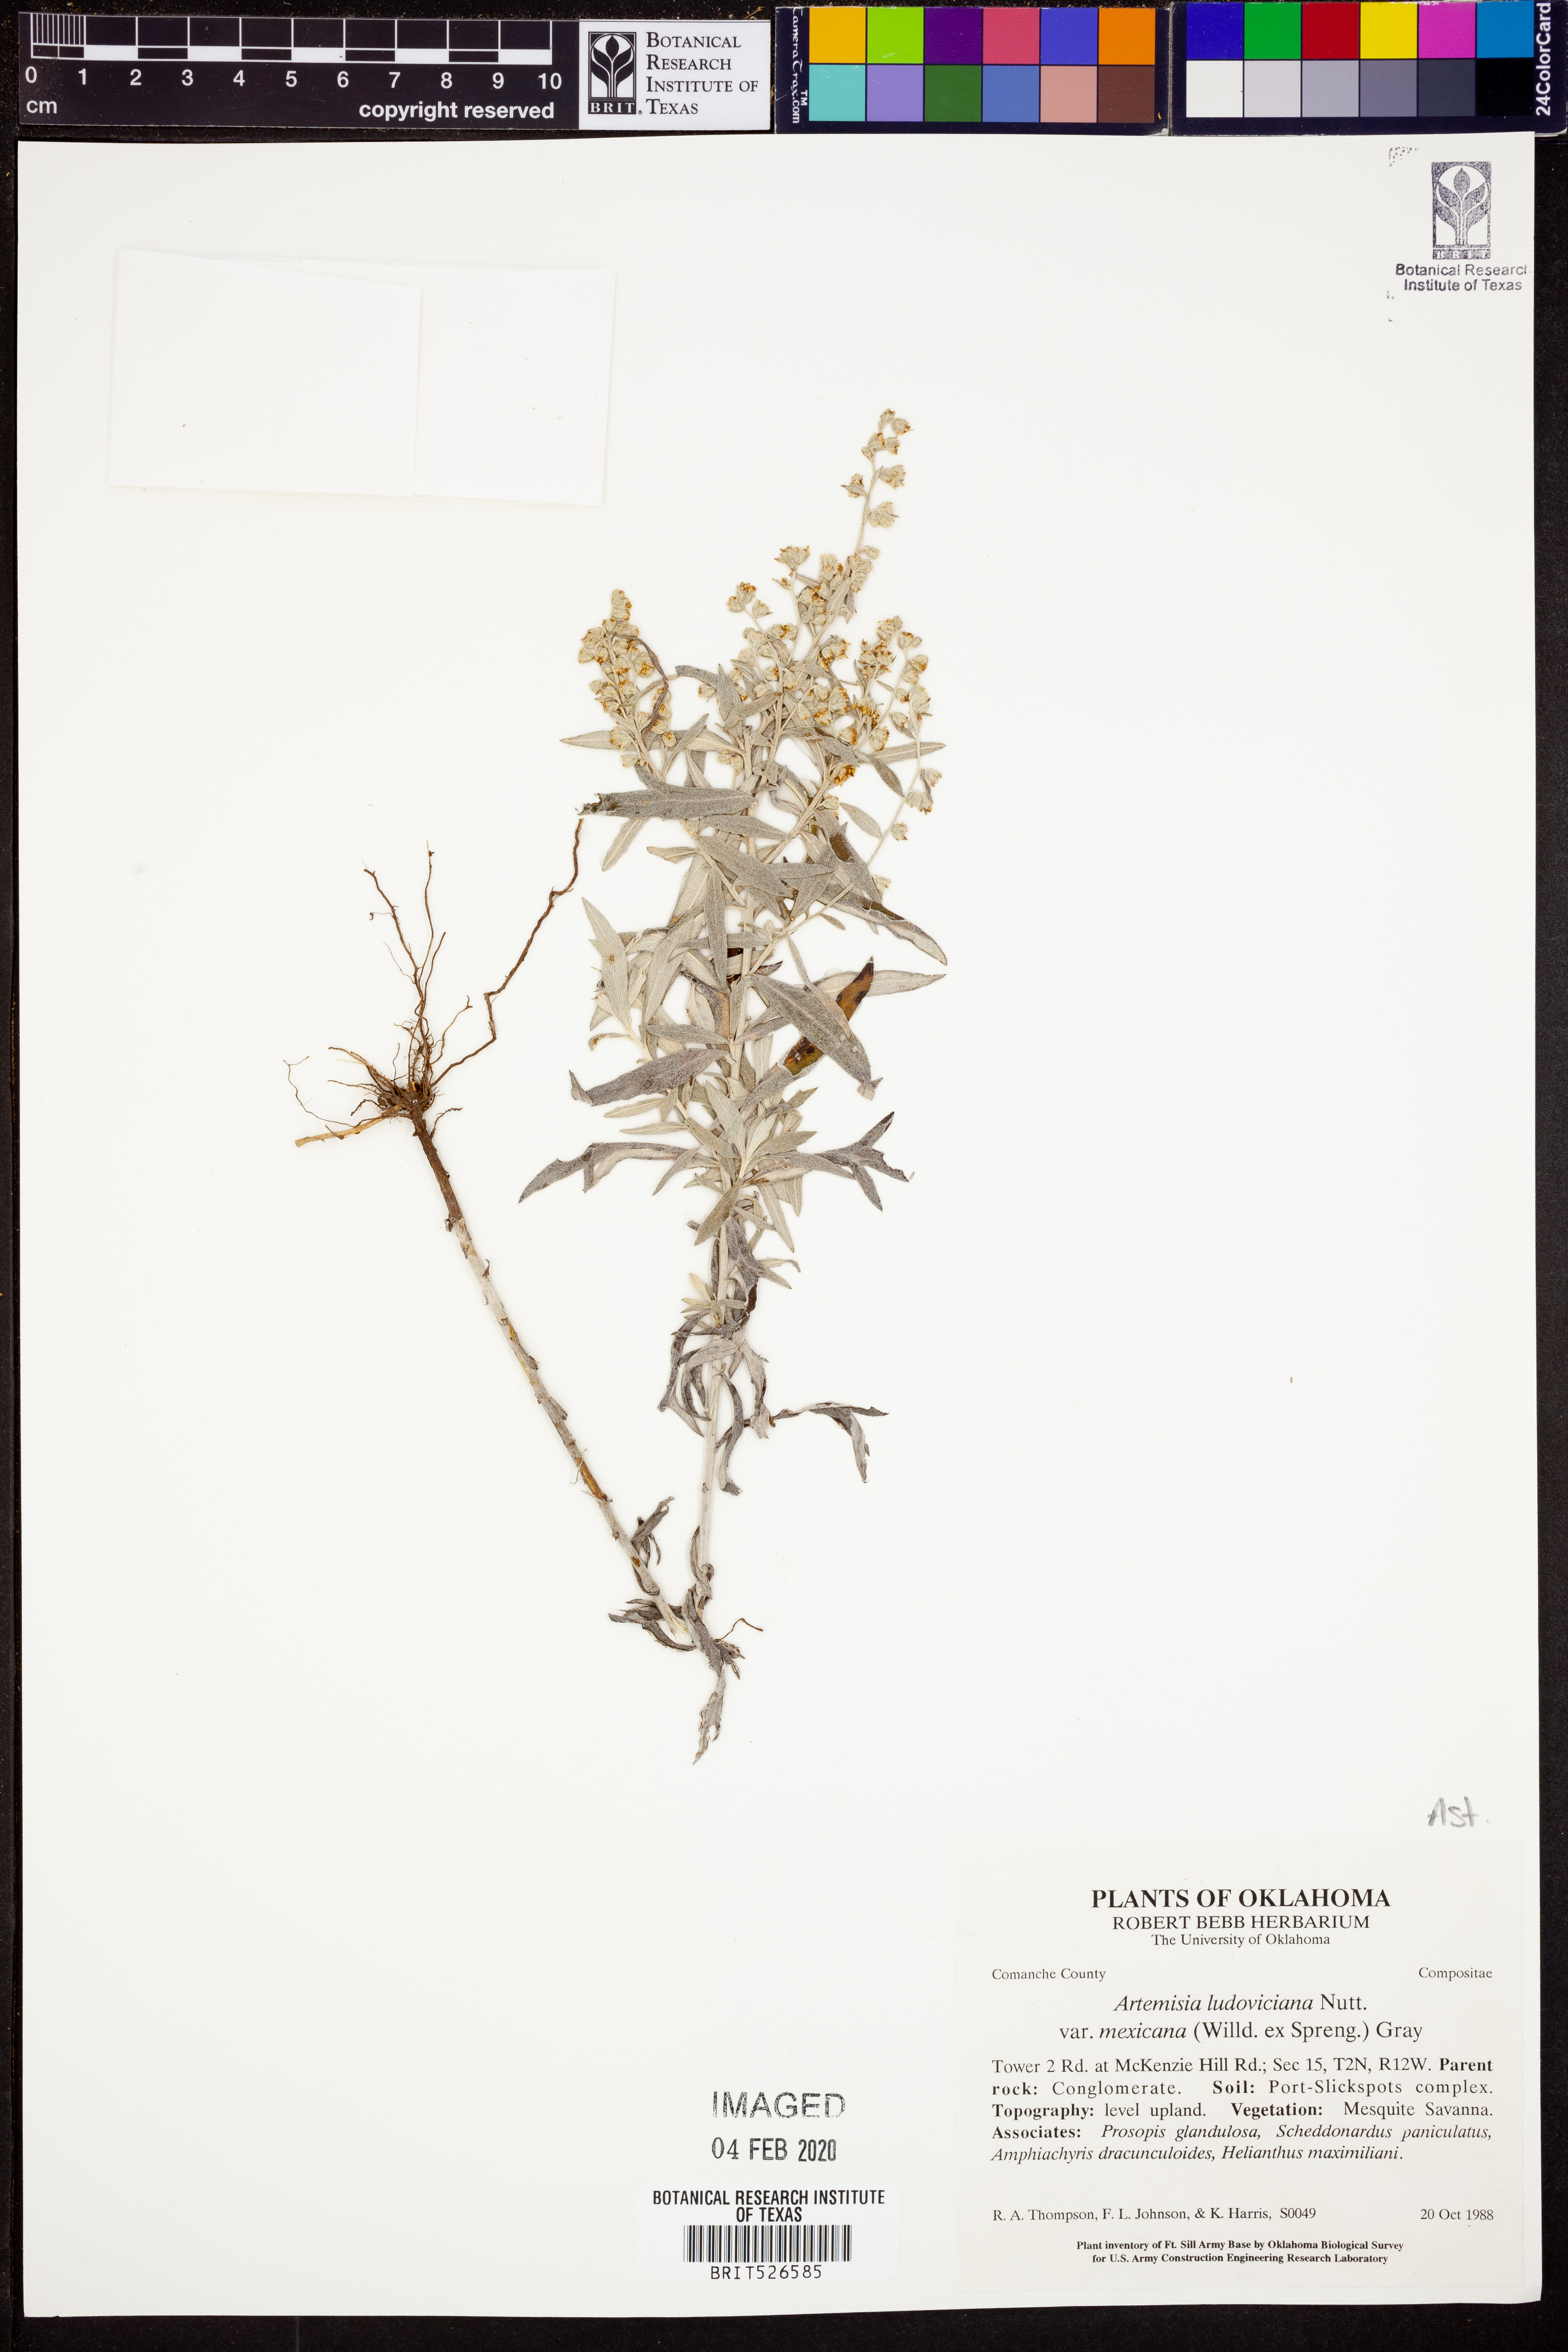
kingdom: Plantae
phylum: Tracheophyta
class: Magnoliopsida
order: Asterales
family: Asteraceae
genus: Artemisia
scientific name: Artemisia ludoviciana
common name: Western mugwort
